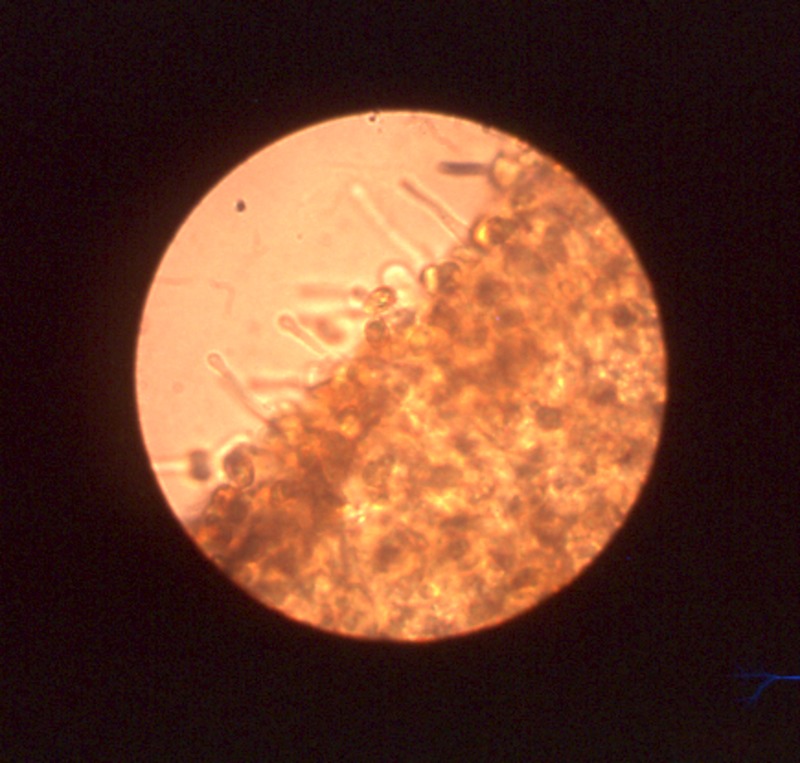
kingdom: Fungi
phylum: Basidiomycota
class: Agaricomycetes
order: Agaricales
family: Hymenogastraceae
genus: Galerina
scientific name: Galerina graminea
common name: Turf bell
